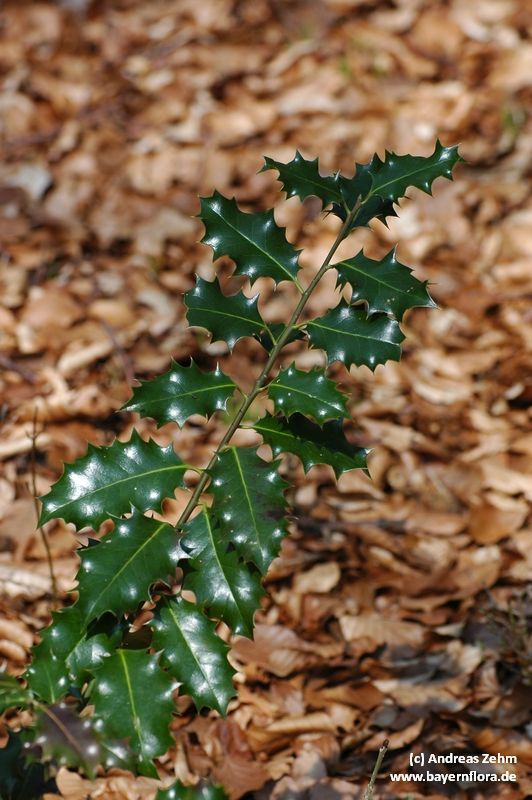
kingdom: Plantae
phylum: Tracheophyta
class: Magnoliopsida
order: Aquifoliales
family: Aquifoliaceae
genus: Ilex
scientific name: Ilex aquifolium
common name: English holly
